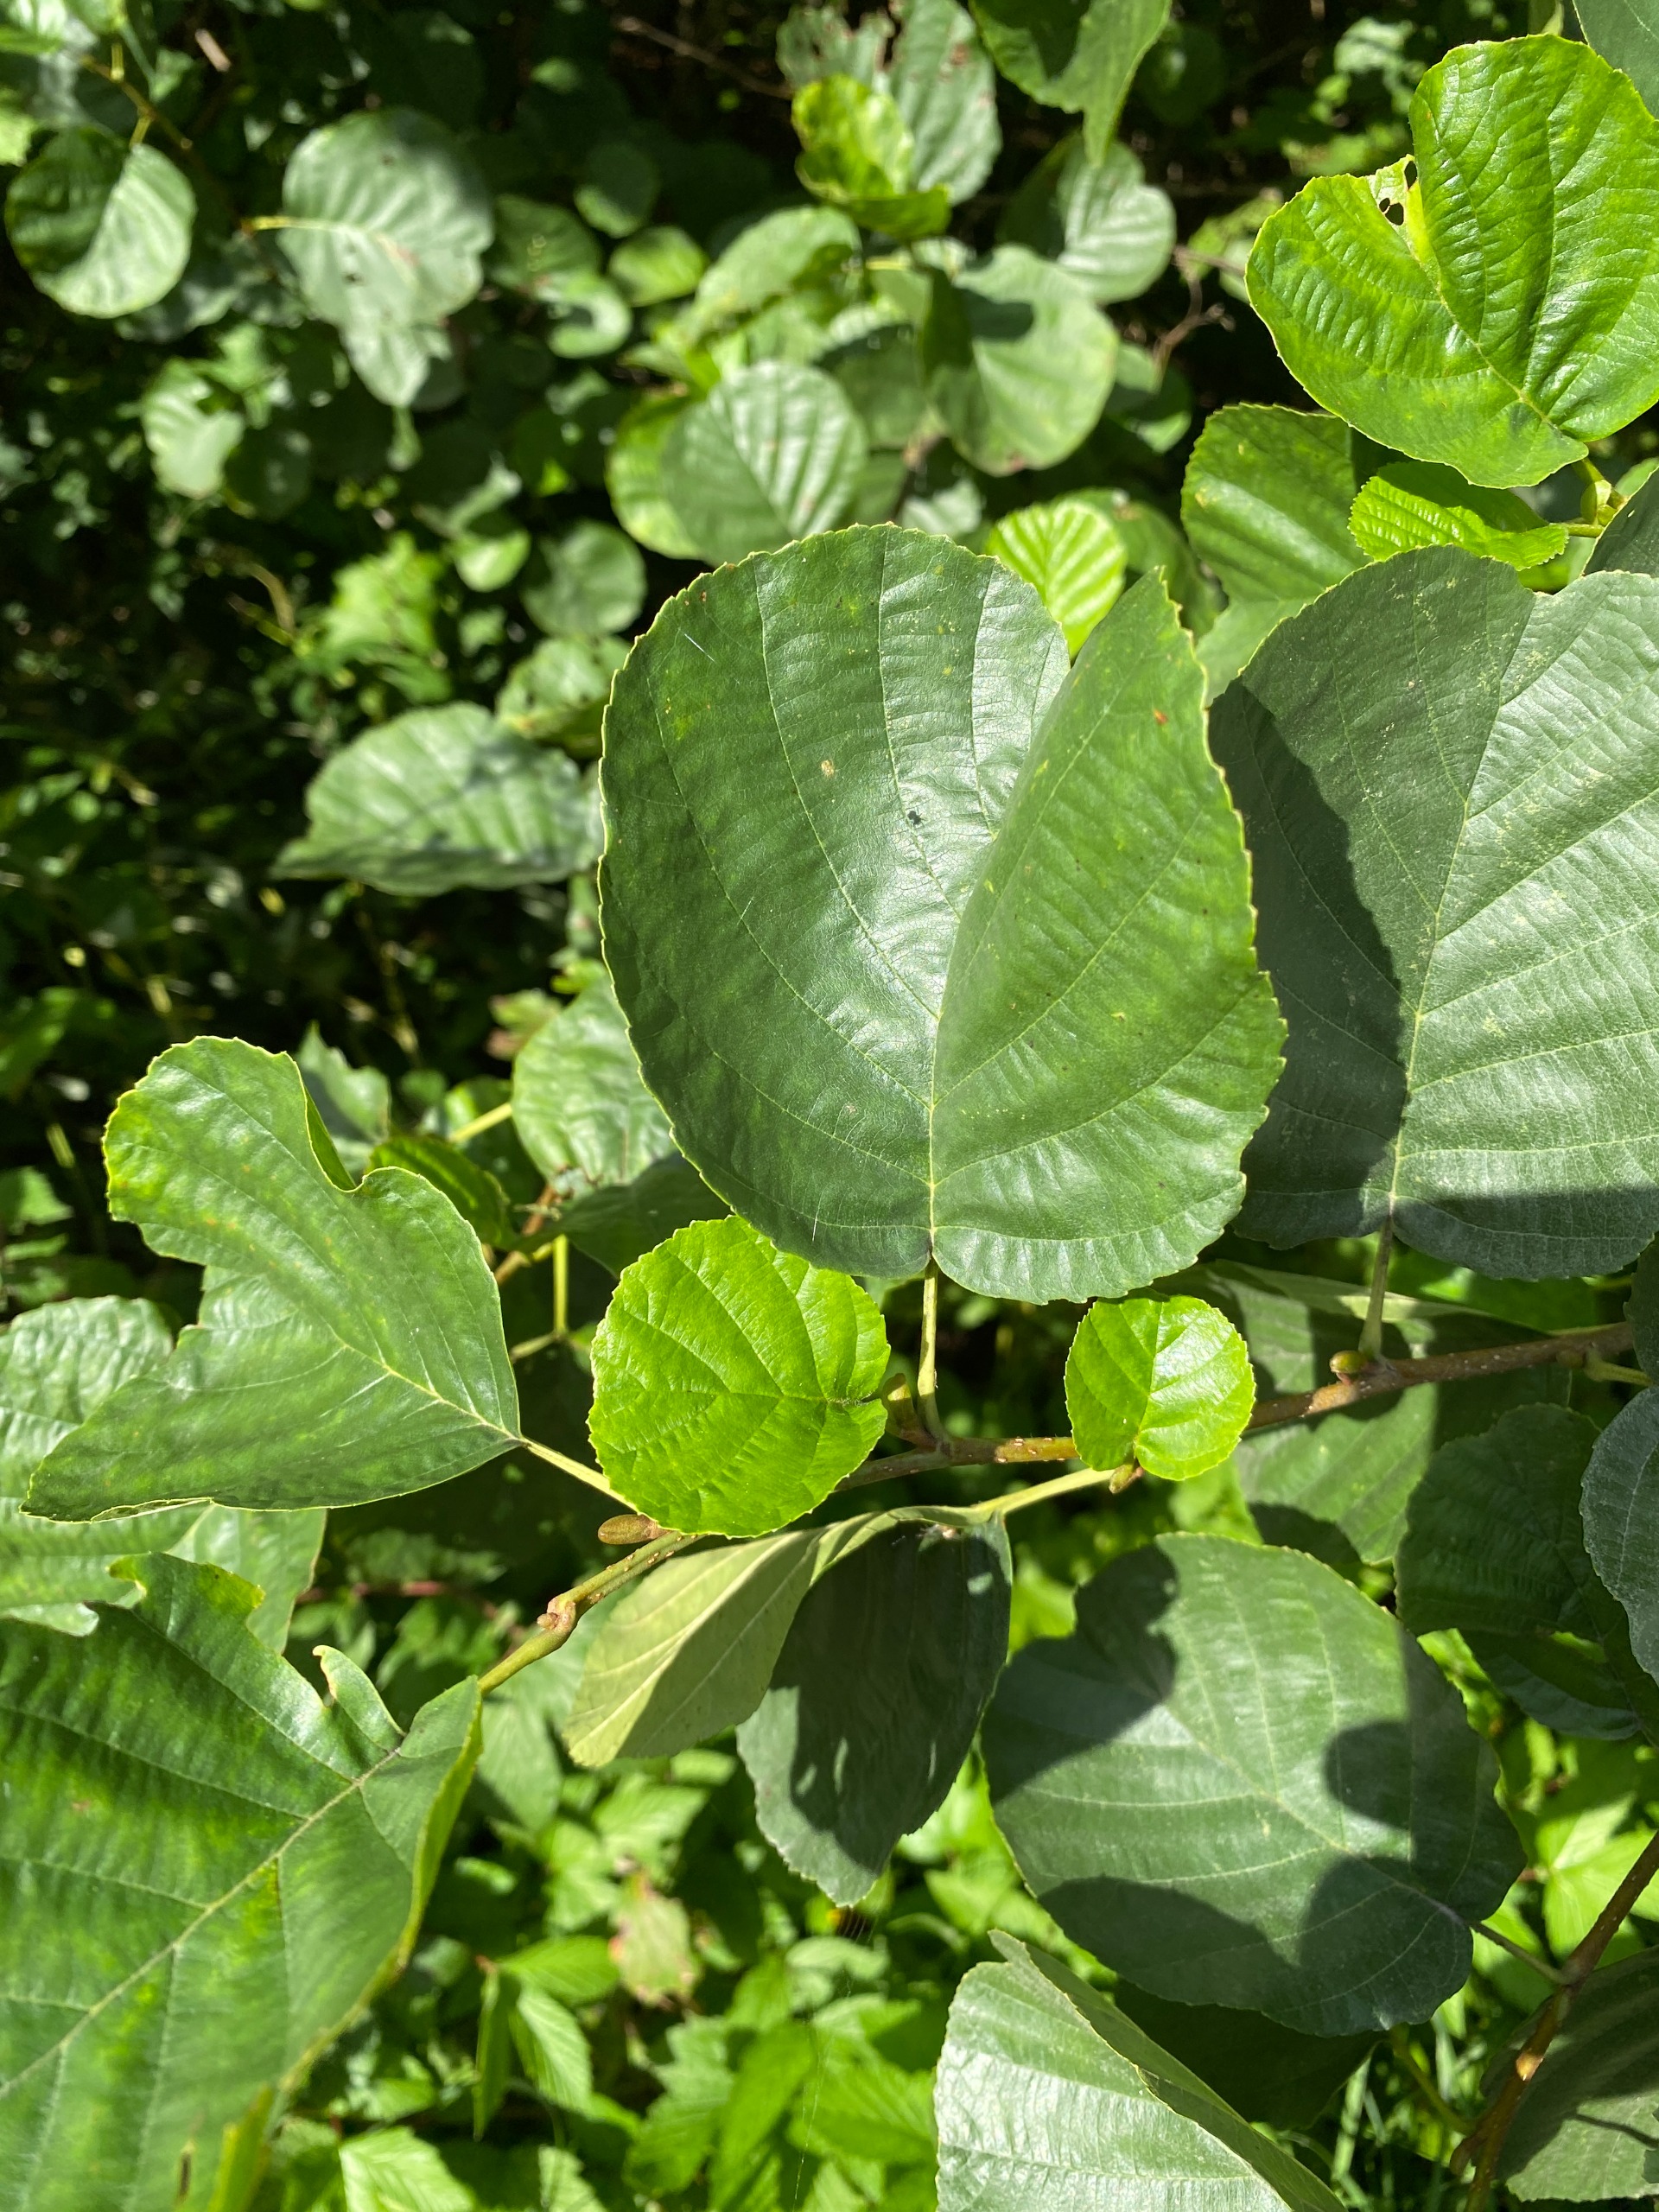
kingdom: Plantae
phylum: Tracheophyta
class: Magnoliopsida
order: Fagales
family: Betulaceae
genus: Alnus
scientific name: Alnus glutinosa
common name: Rød-el
